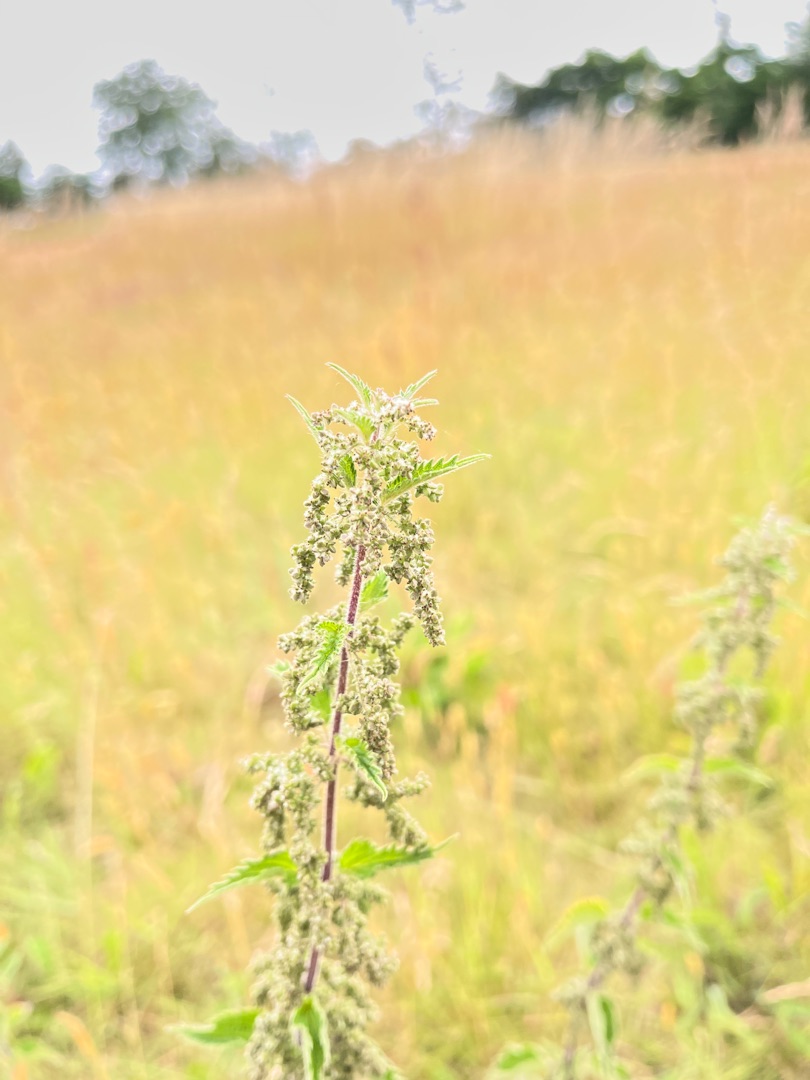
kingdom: Plantae
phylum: Tracheophyta
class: Magnoliopsida
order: Rosales
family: Urticaceae
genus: Urtica
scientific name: Urtica dioica
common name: Stor nælde
